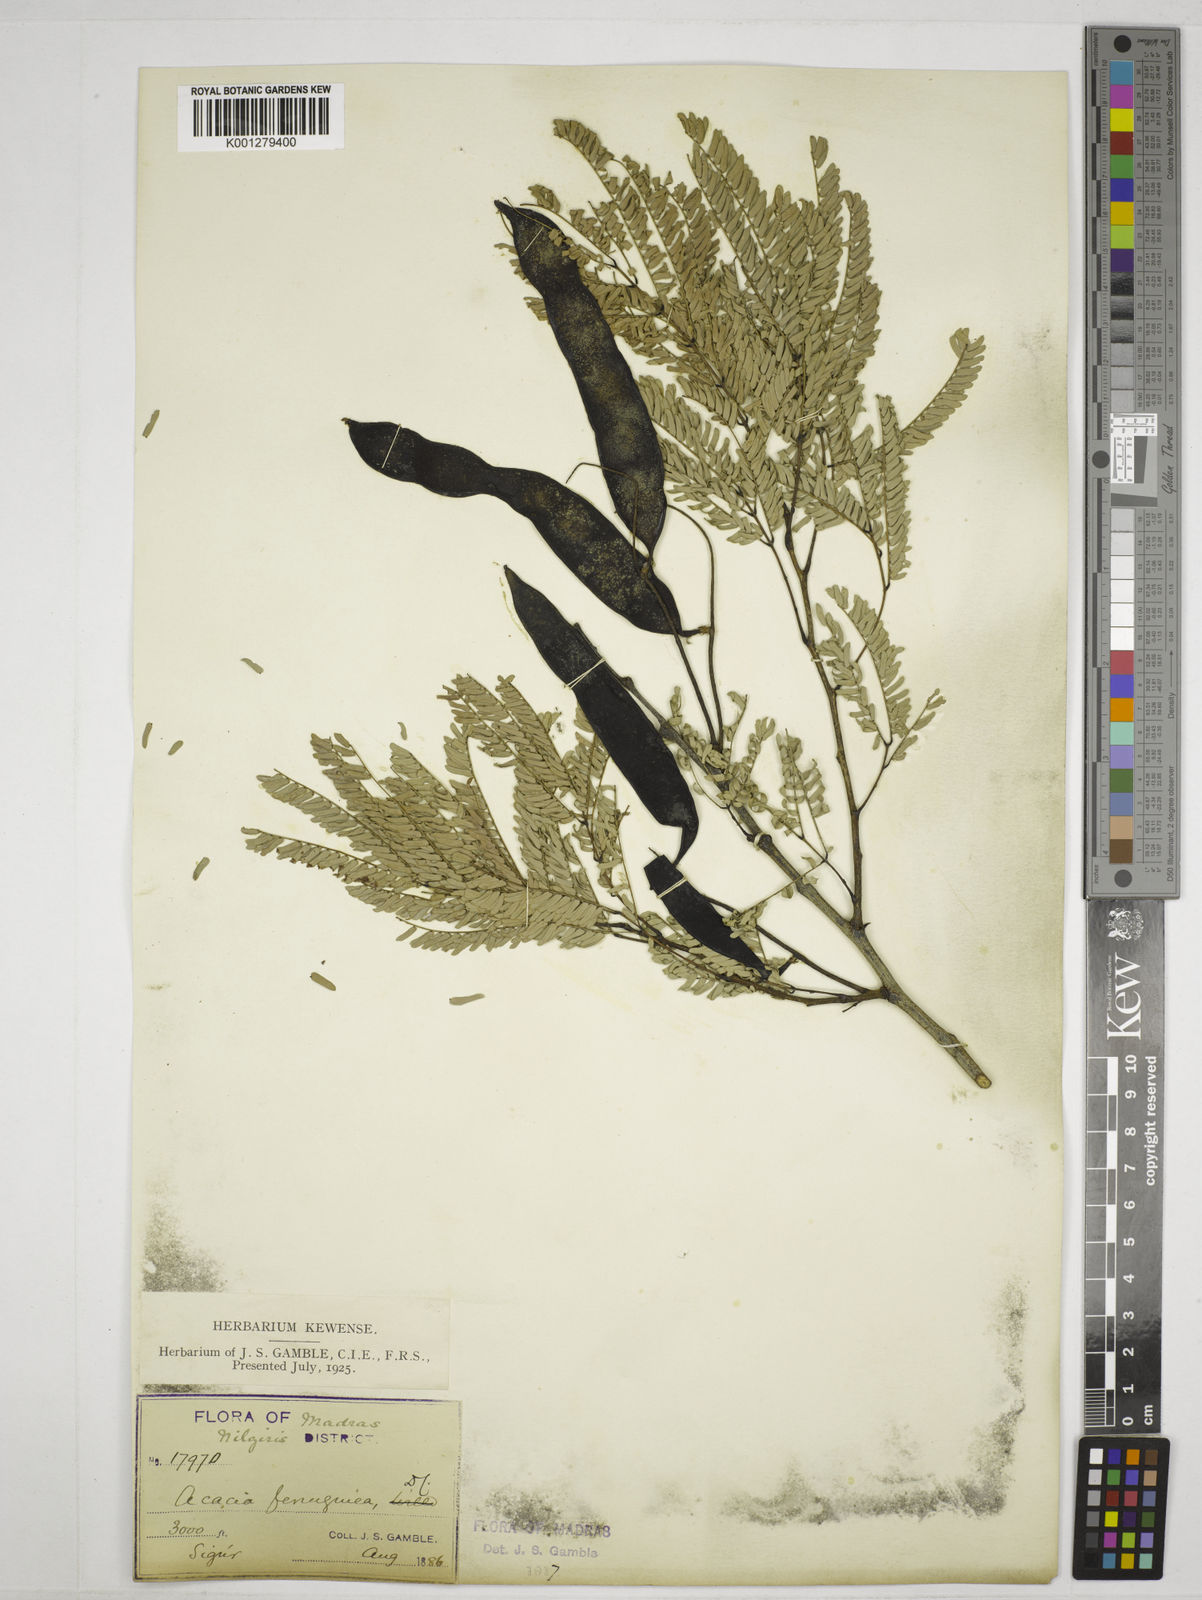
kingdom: Plantae
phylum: Tracheophyta
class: Magnoliopsida
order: Fabales
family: Fabaceae
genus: Senegalia
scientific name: Senegalia ferruginea
